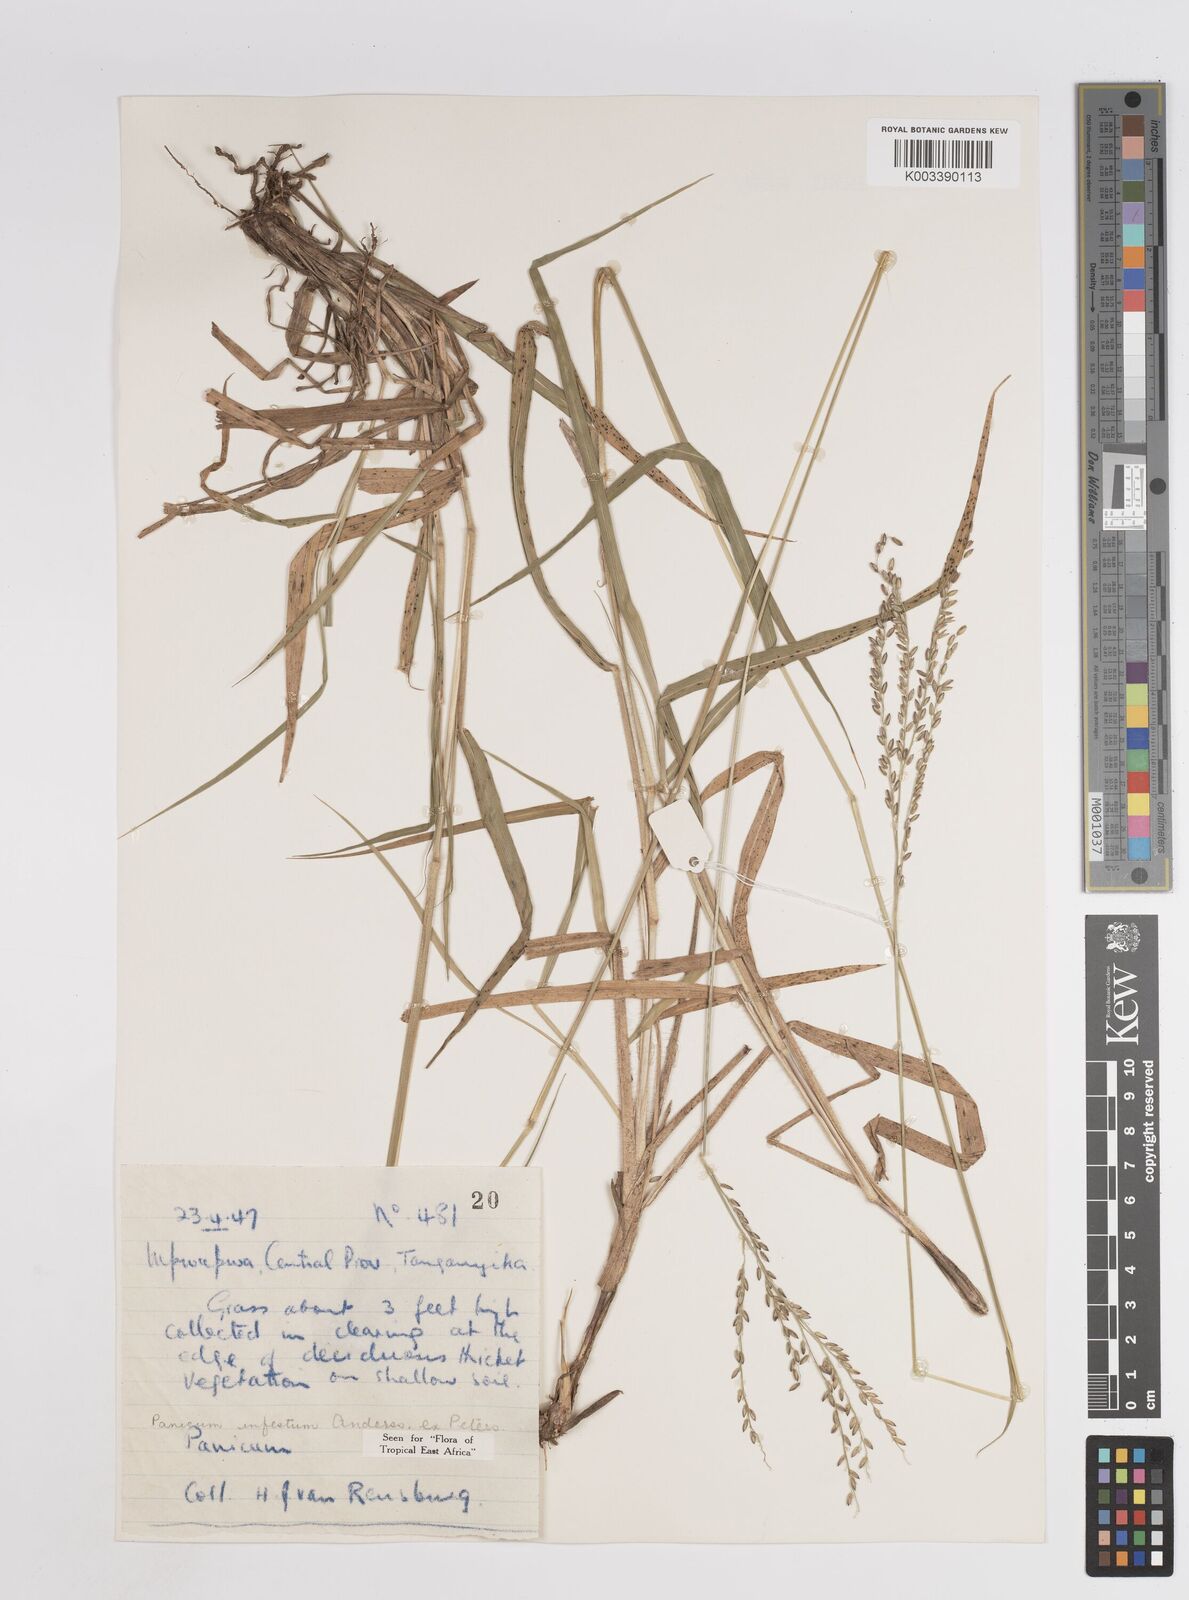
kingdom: Plantae
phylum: Tracheophyta
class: Liliopsida
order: Poales
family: Poaceae
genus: Megathyrsus
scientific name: Megathyrsus infestus
